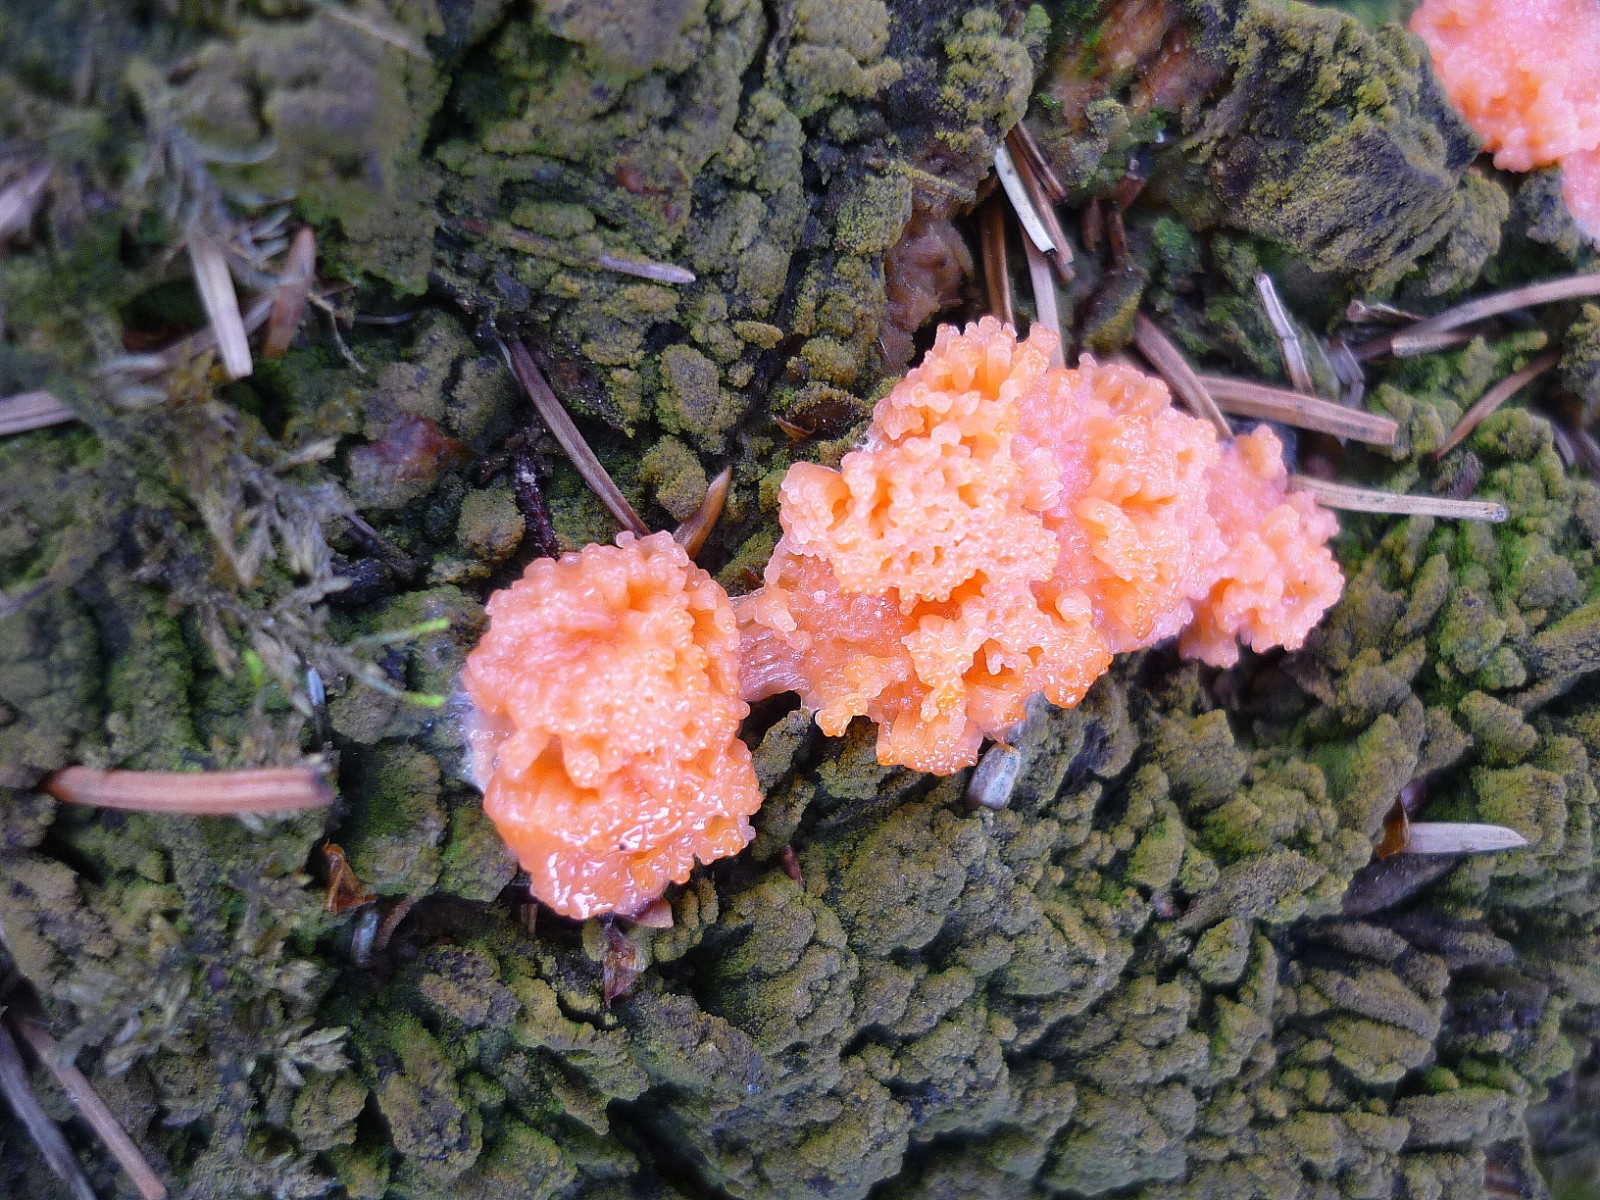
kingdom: Protozoa
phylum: Mycetozoa
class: Myxomycetes
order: Cribrariales
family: Tubiferaceae
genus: Tubifera
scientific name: Tubifera ferruginosa
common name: kanel-støvrør
